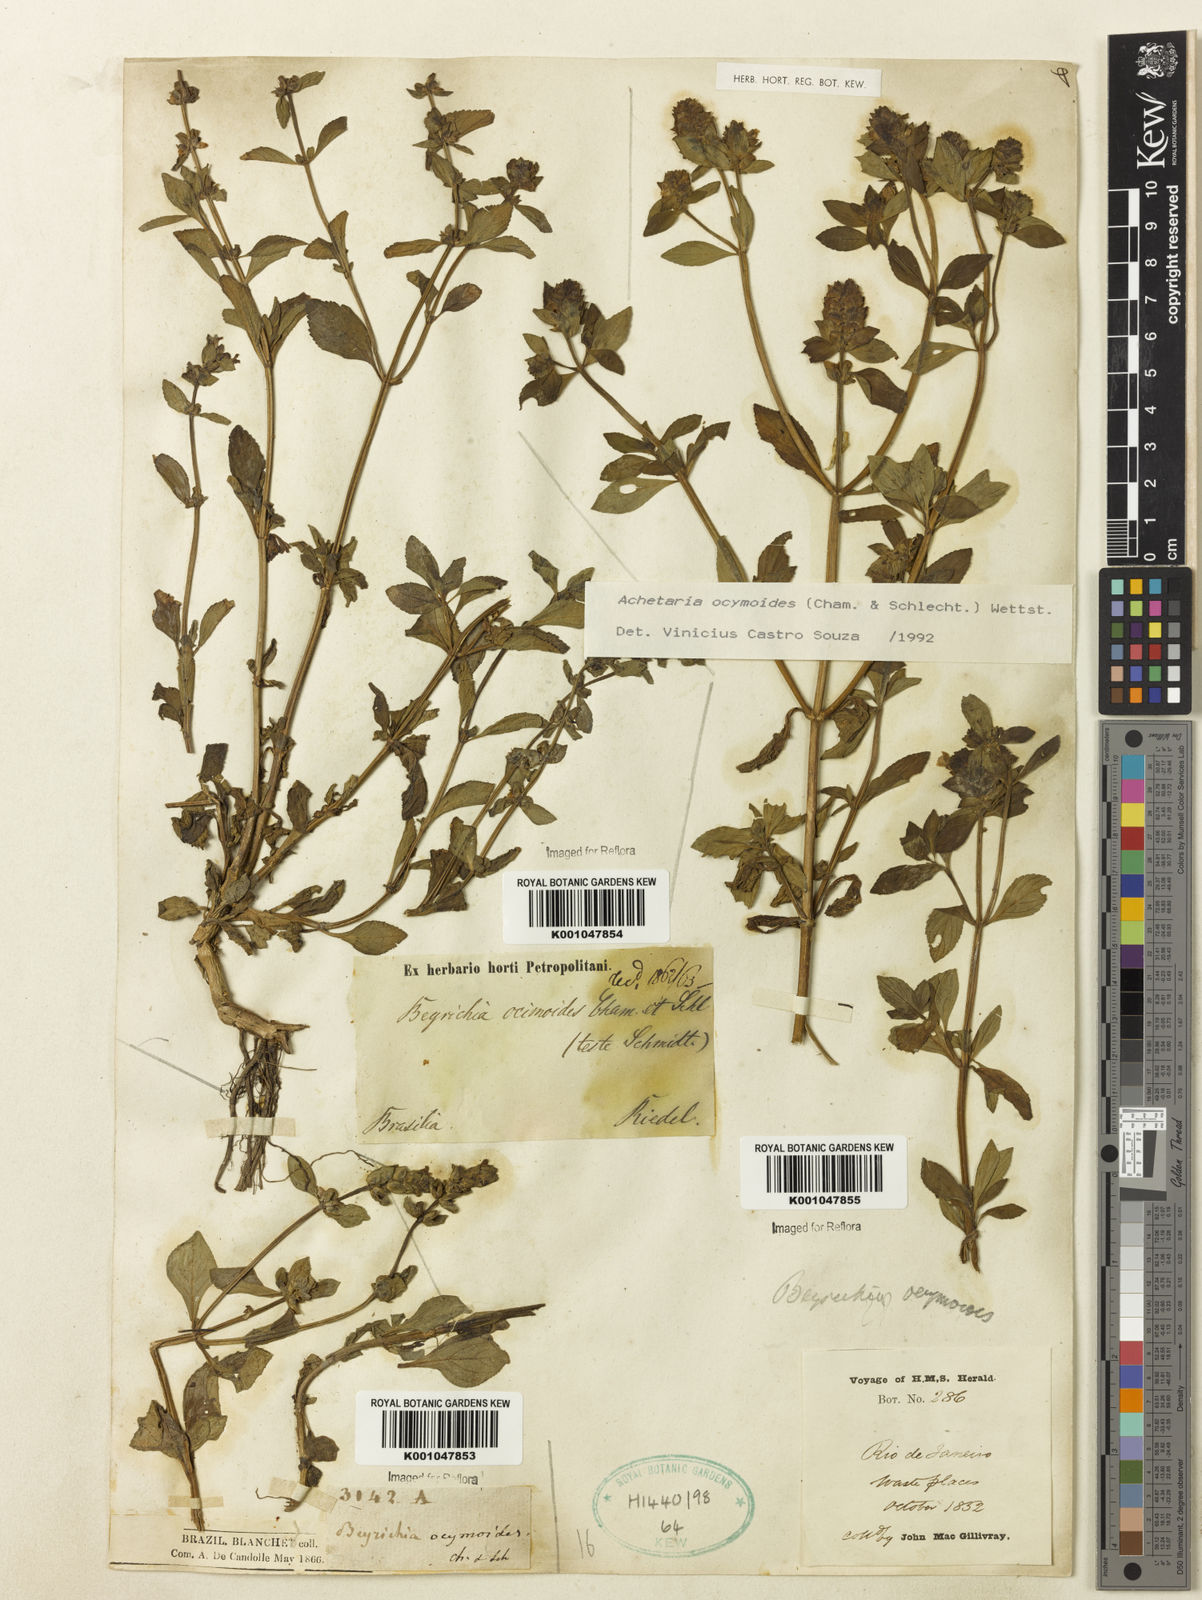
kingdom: Plantae
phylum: Tracheophyta
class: Magnoliopsida
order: Lamiales
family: Plantaginaceae
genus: Matourea
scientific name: Matourea ocymoides
